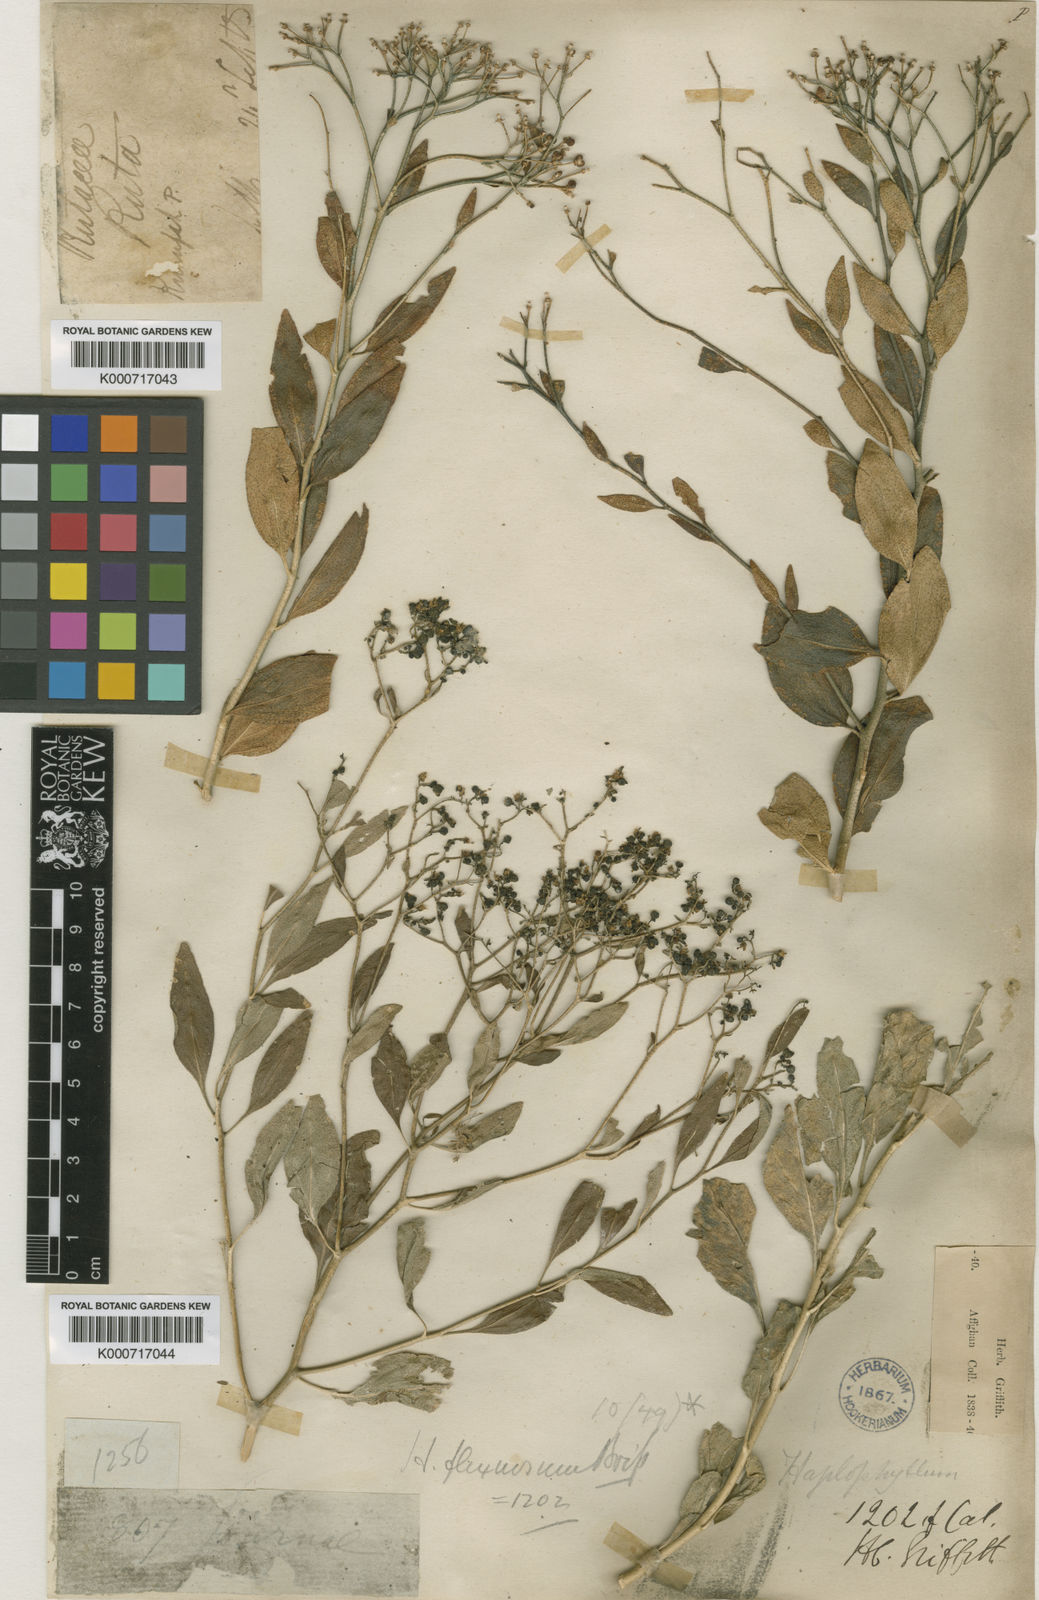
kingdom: Plantae
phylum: Tracheophyta
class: Magnoliopsida
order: Sapindales
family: Rutaceae
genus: Haplophyllum
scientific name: Haplophyllum acutifolium
